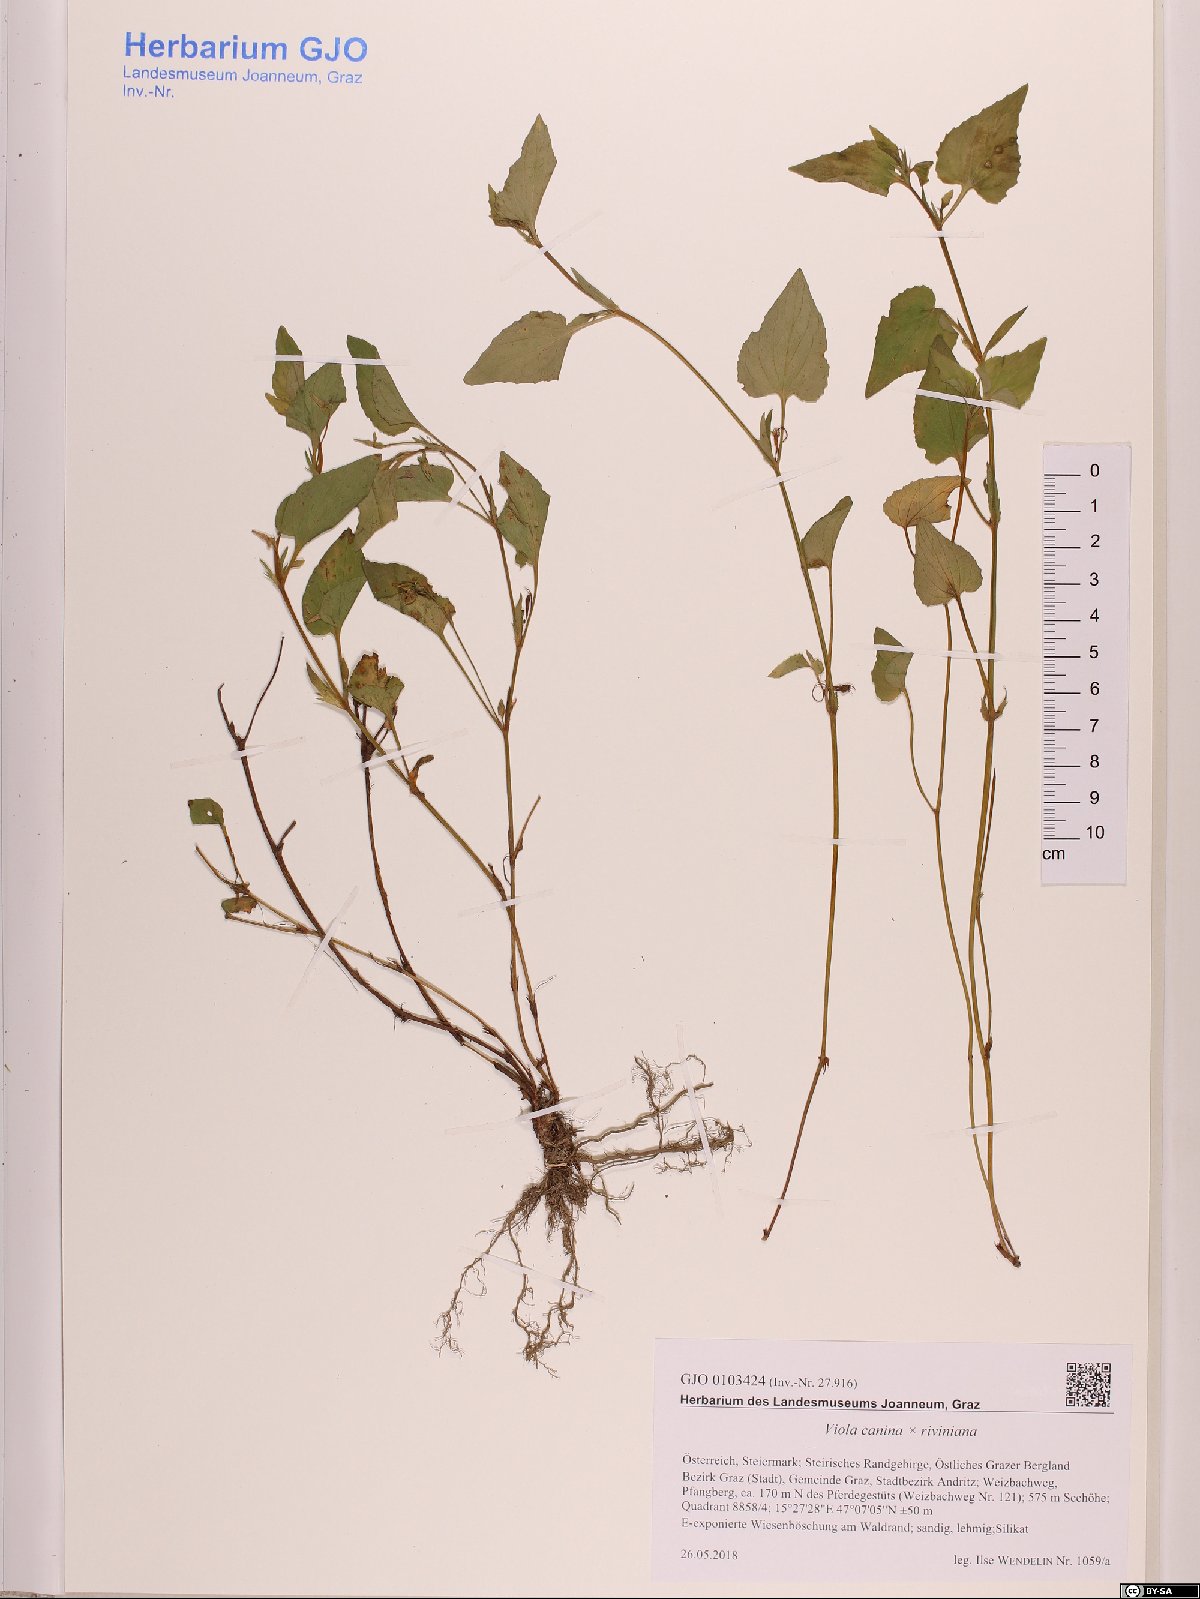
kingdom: Plantae
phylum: Tracheophyta
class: Magnoliopsida
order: Malpighiales
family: Violaceae
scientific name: Violaceae
